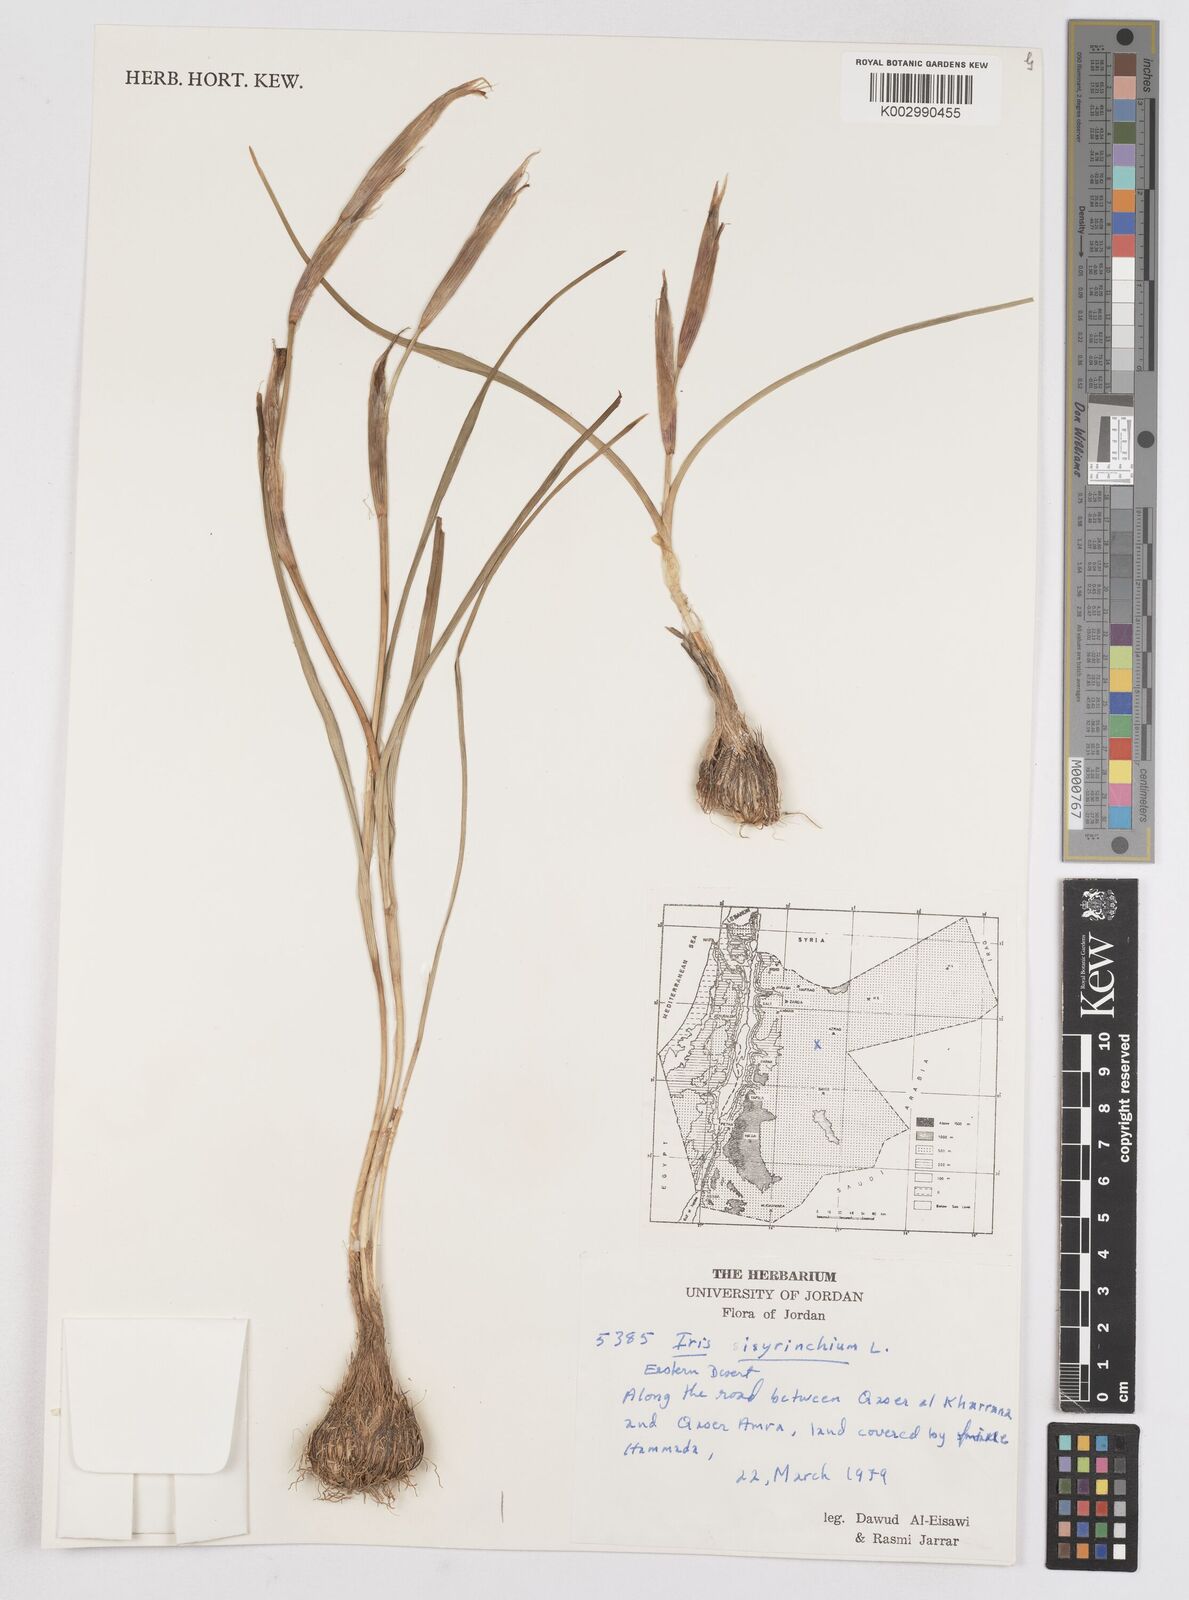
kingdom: Plantae
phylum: Tracheophyta
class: Liliopsida
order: Asparagales
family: Iridaceae
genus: Moraea
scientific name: Moraea sisyrinchium
